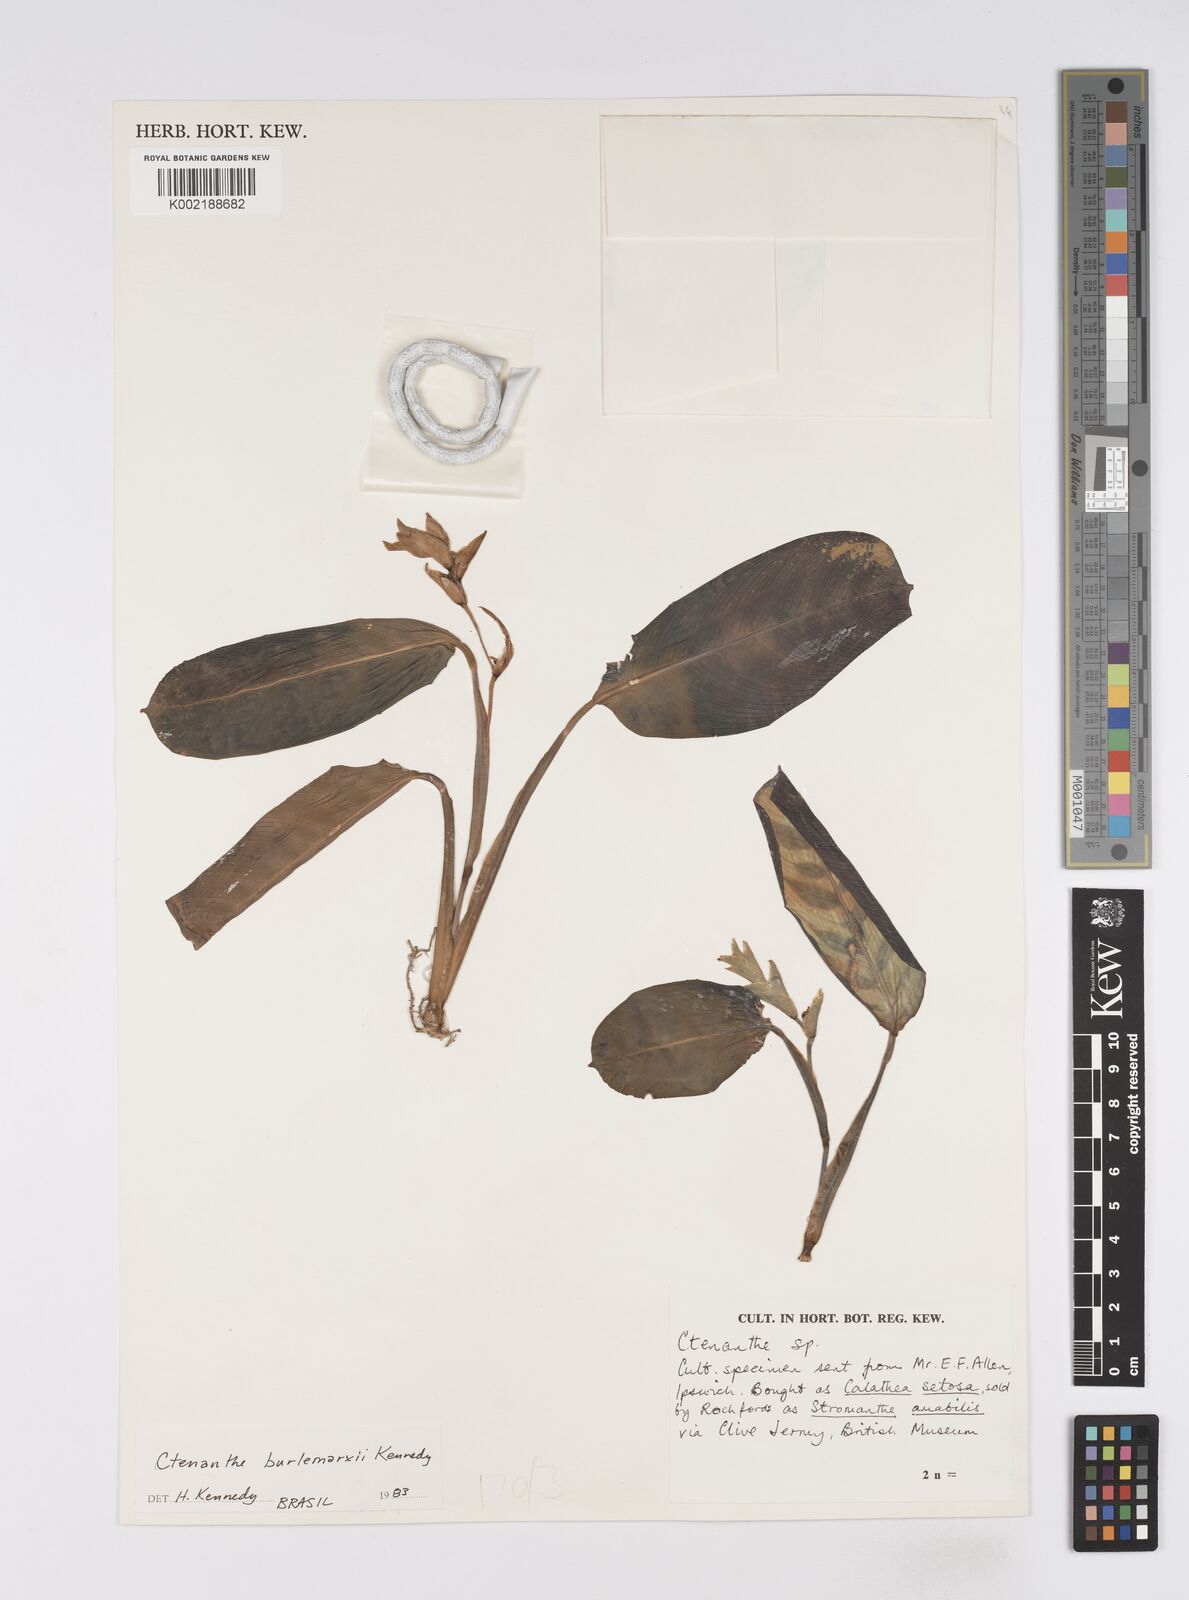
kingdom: Plantae
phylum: Tracheophyta
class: Liliopsida
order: Zingiberales
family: Marantaceae
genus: Ctenanthe
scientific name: Ctenanthe burle-marxii
